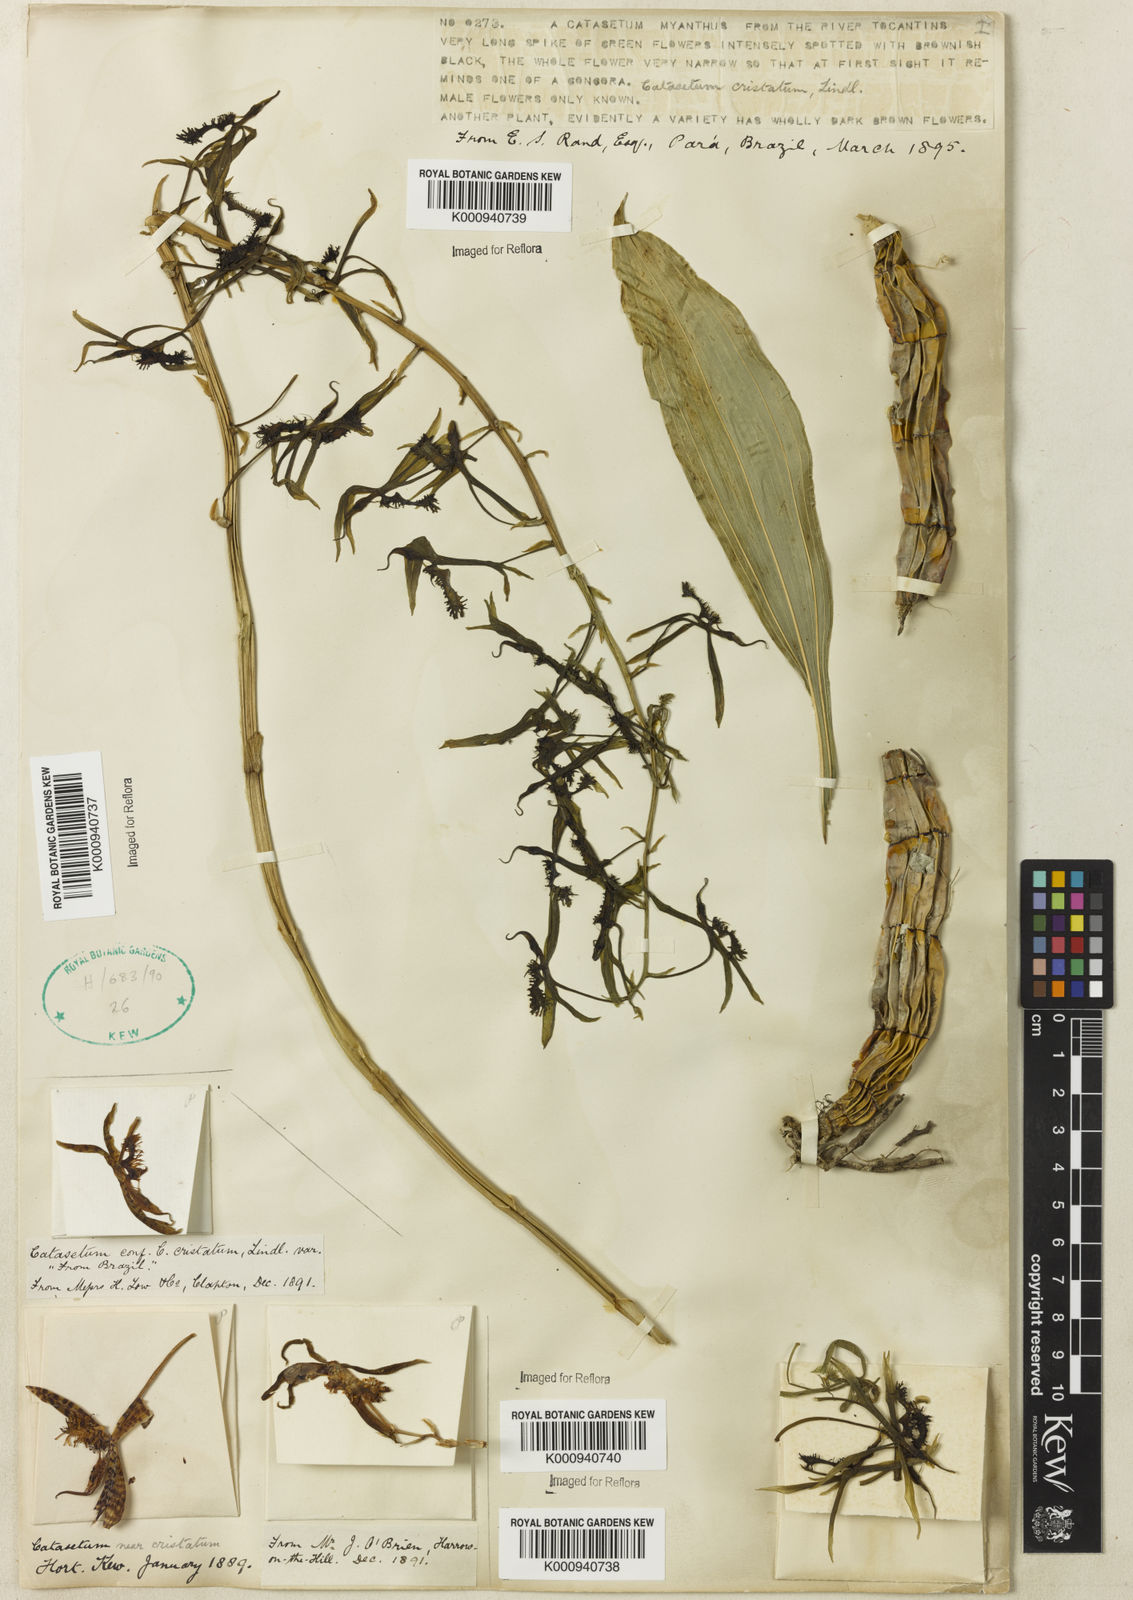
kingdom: Plantae
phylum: Tracheophyta
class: Liliopsida
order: Asparagales
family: Orchidaceae
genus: Catasetum
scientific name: Catasetum cristatum
